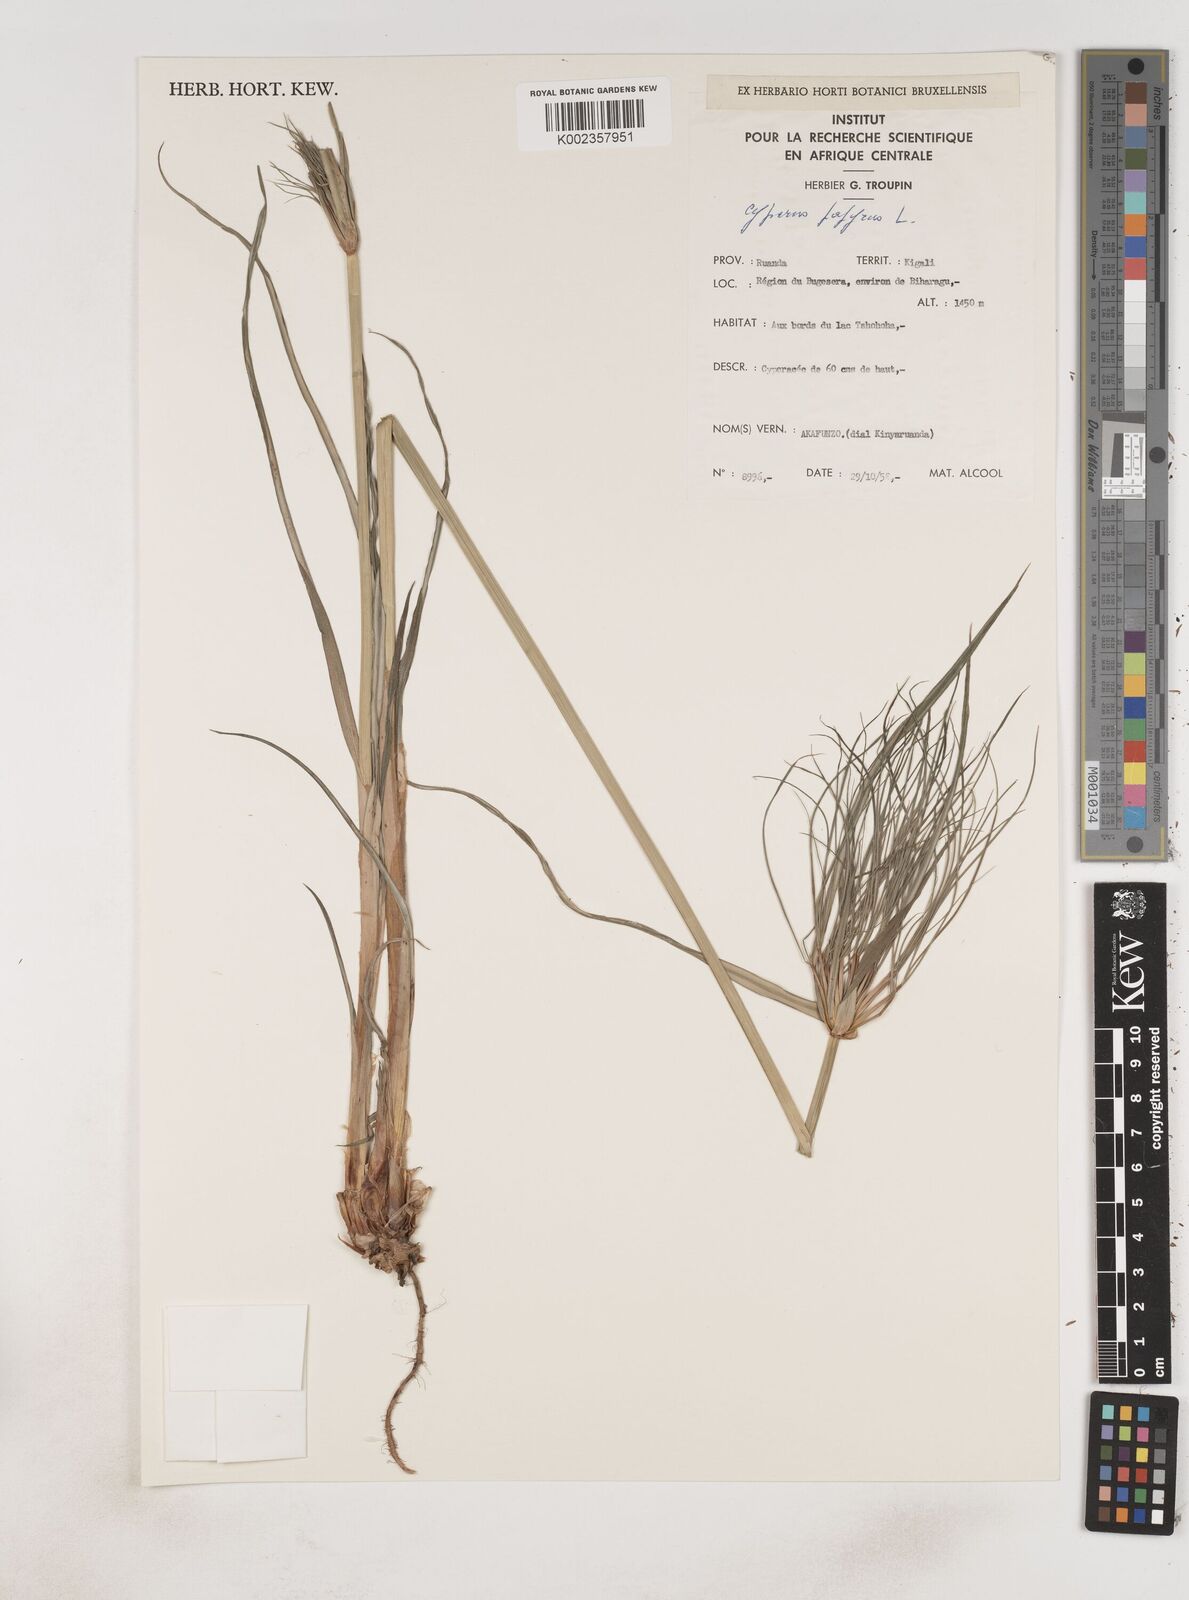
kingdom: Plantae
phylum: Tracheophyta
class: Liliopsida
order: Poales
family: Cyperaceae
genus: Cyperus
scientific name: Cyperus papyrus
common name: Papyrus
